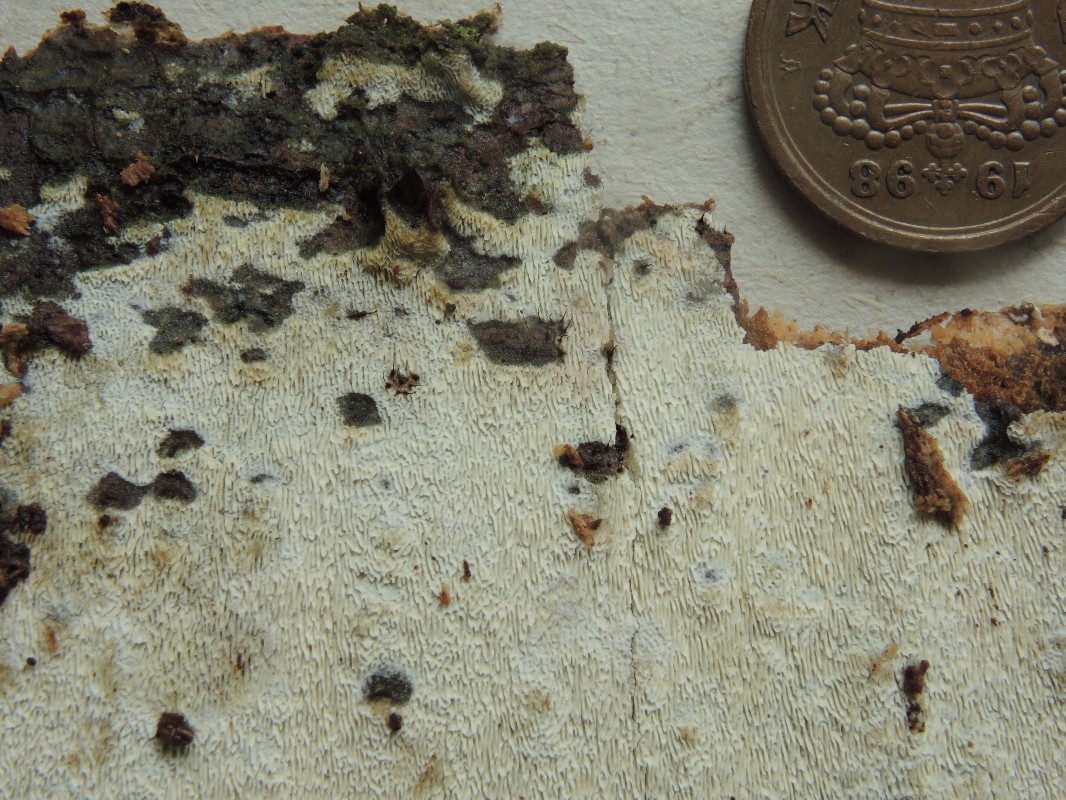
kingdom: Fungi
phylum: Basidiomycota
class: Agaricomycetes
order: Polyporales
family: Fomitopsidaceae
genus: Antrodia
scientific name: Antrodia
